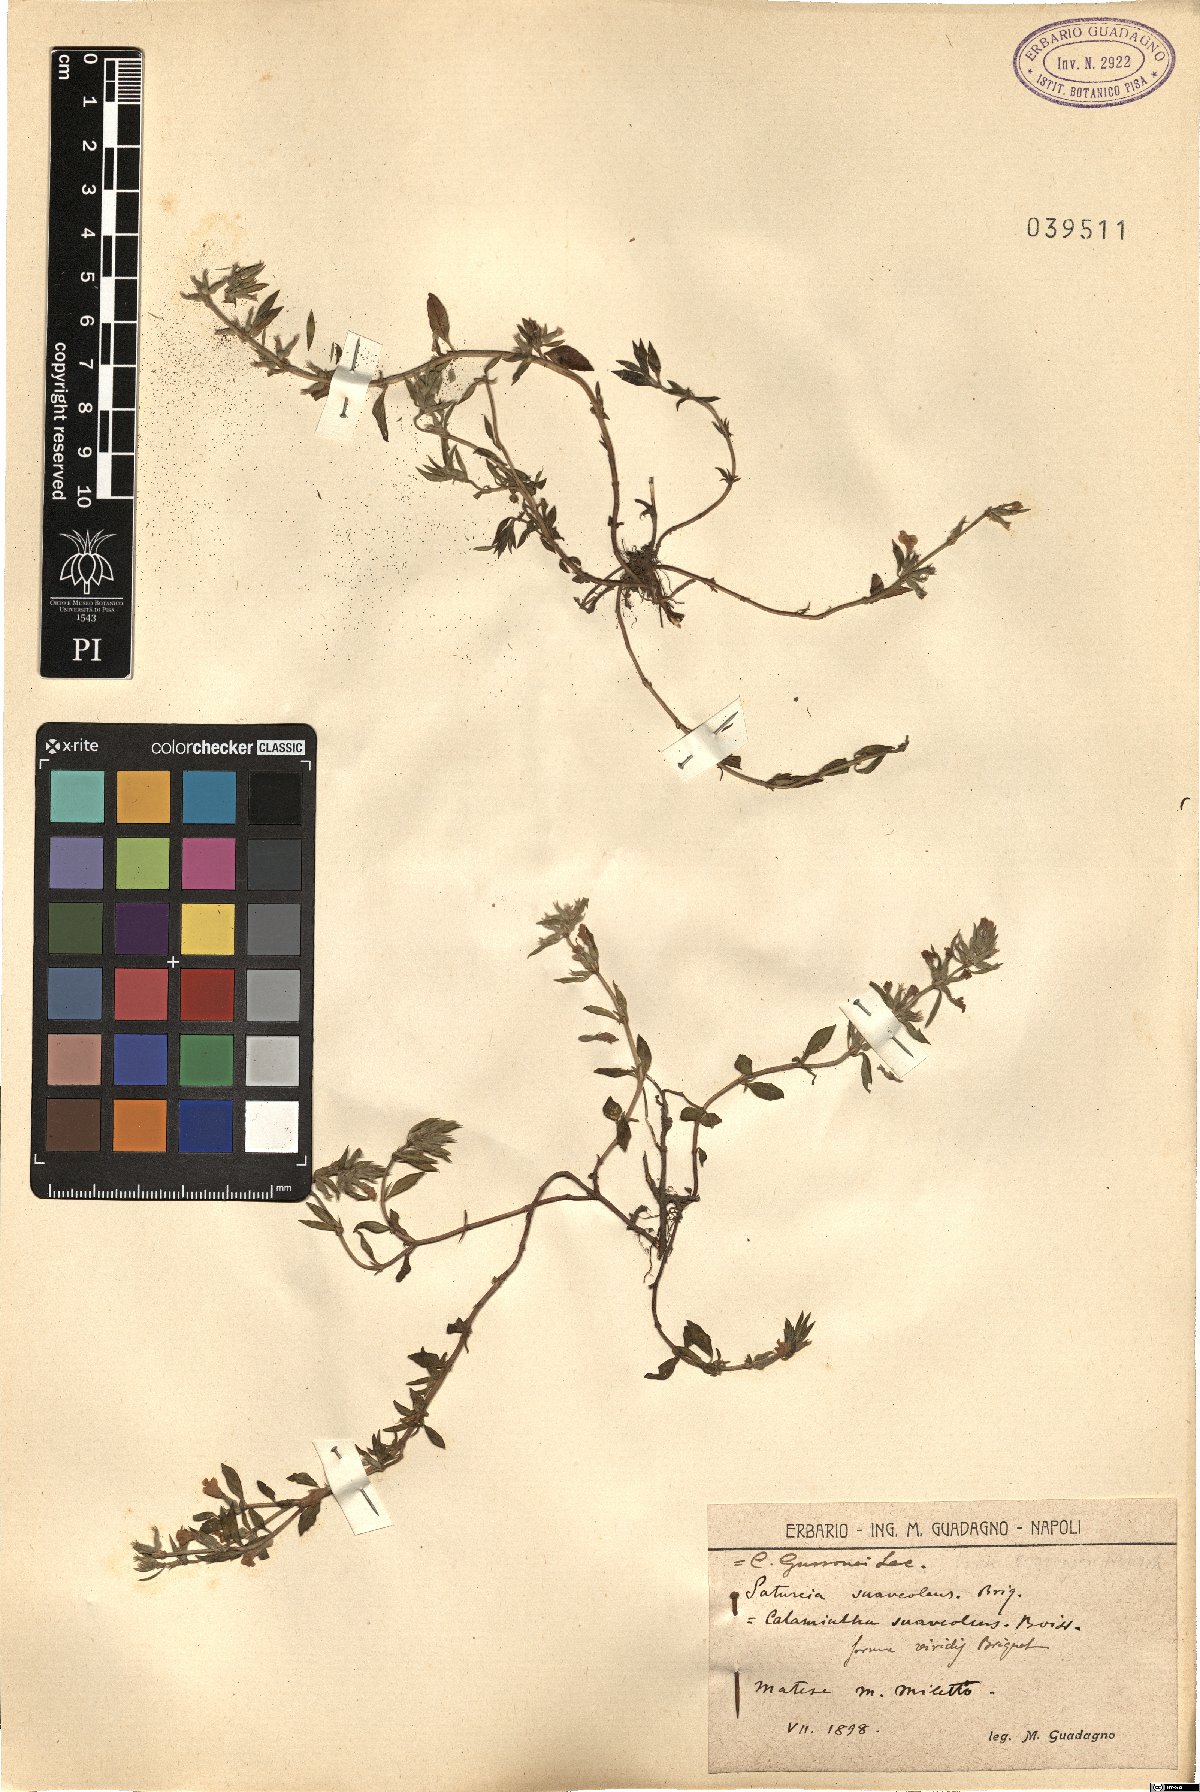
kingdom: Plantae
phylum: Tracheophyta
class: Magnoliopsida
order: Lamiales
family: Lamiaceae
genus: Clinopodium
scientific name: Clinopodium suaveolens
